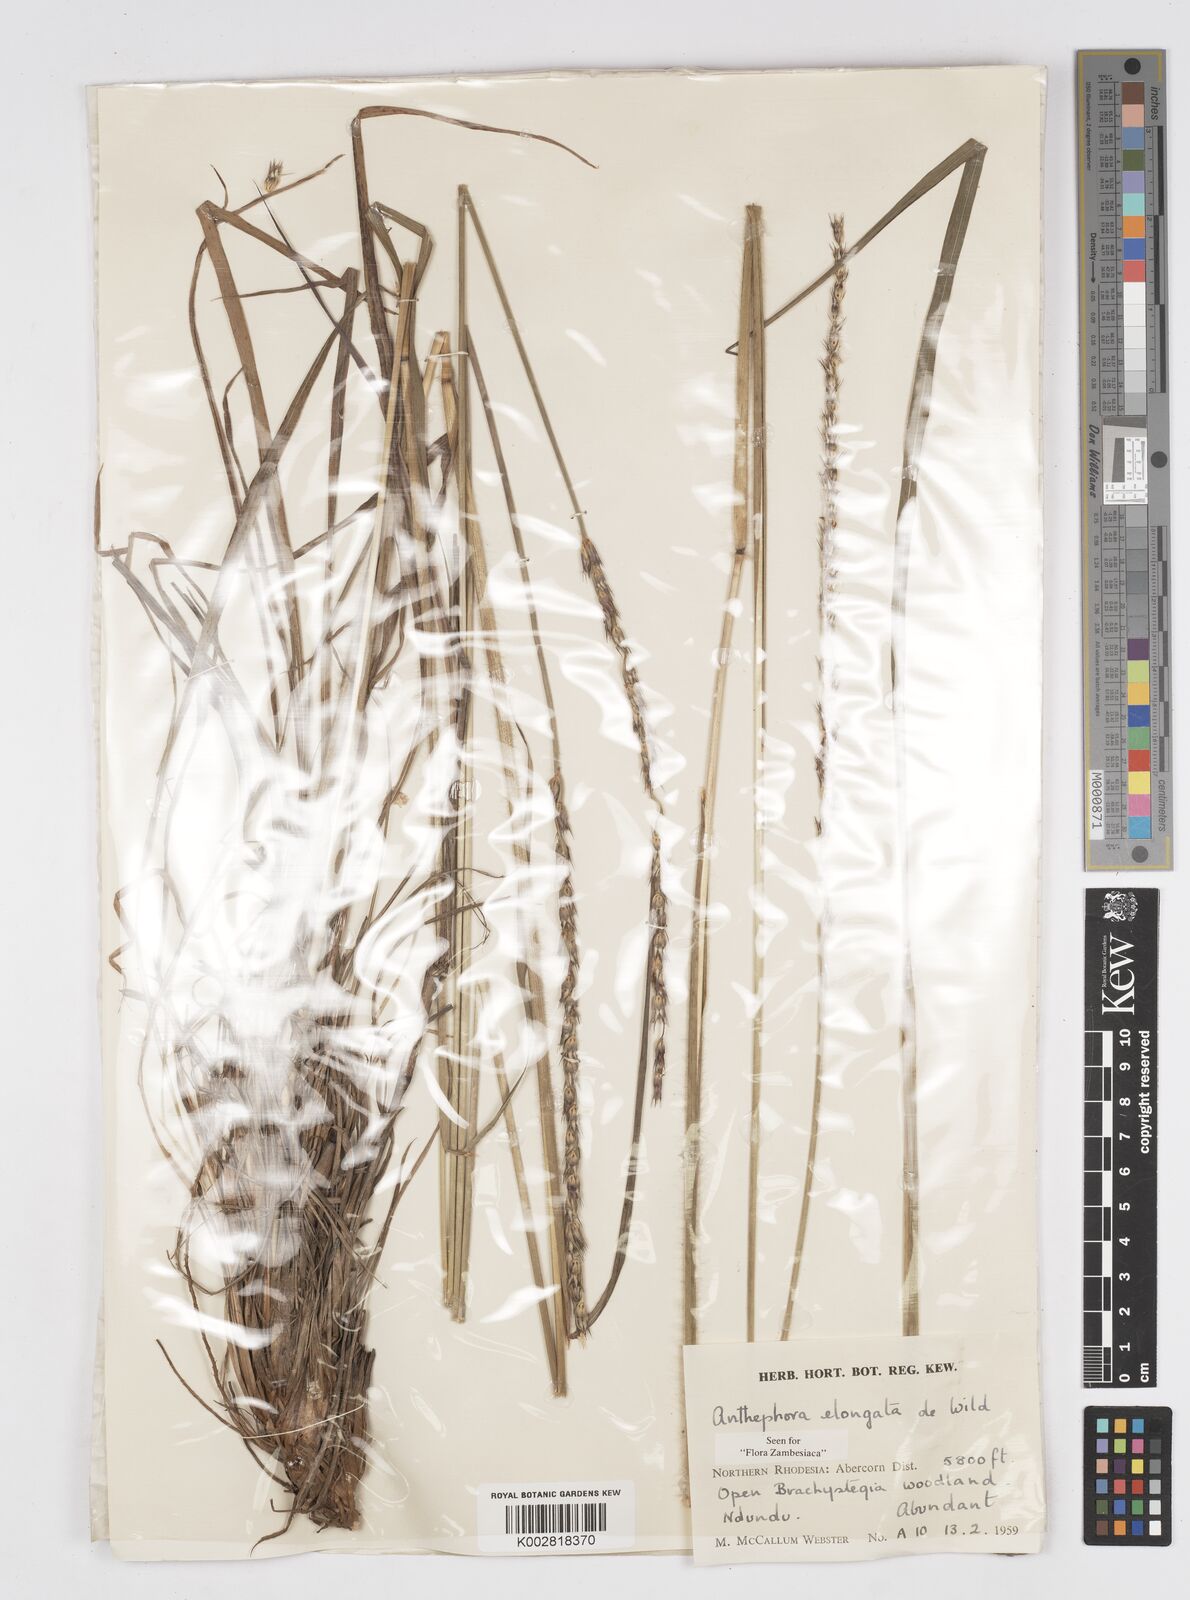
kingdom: Plantae
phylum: Tracheophyta
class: Liliopsida
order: Poales
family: Poaceae
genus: Anthephora
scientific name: Anthephora elongata
